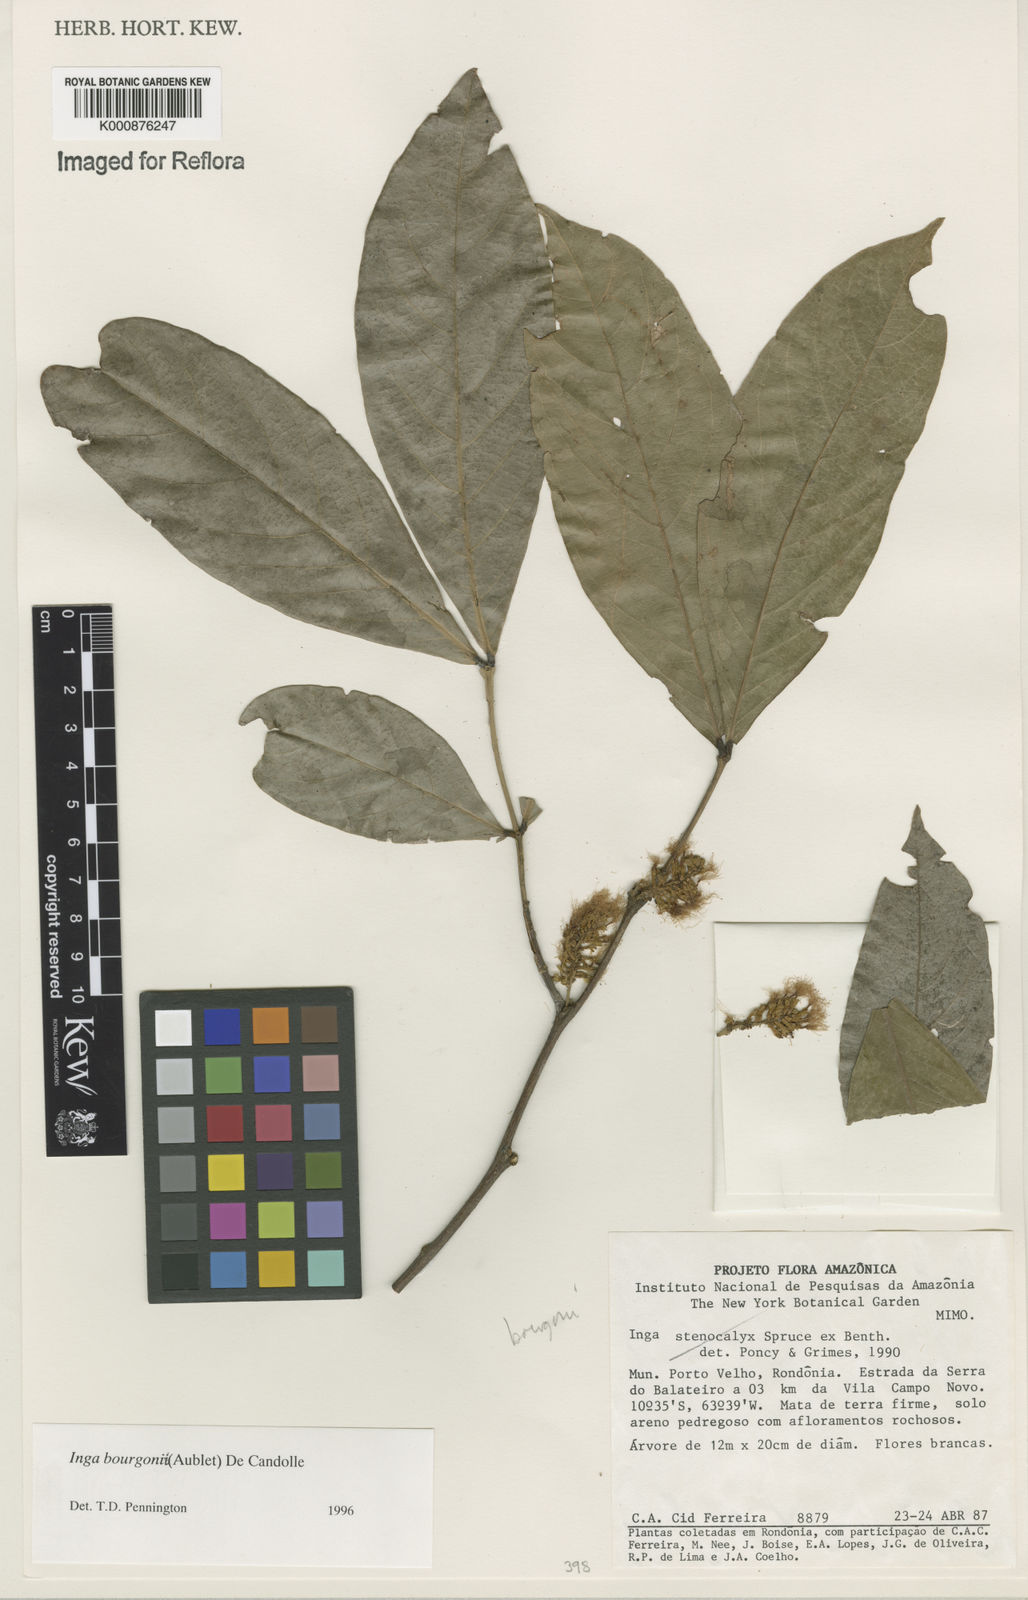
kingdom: Plantae
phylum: Tracheophyta
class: Magnoliopsida
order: Fabales
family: Fabaceae
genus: Inga
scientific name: Inga bourgoni
